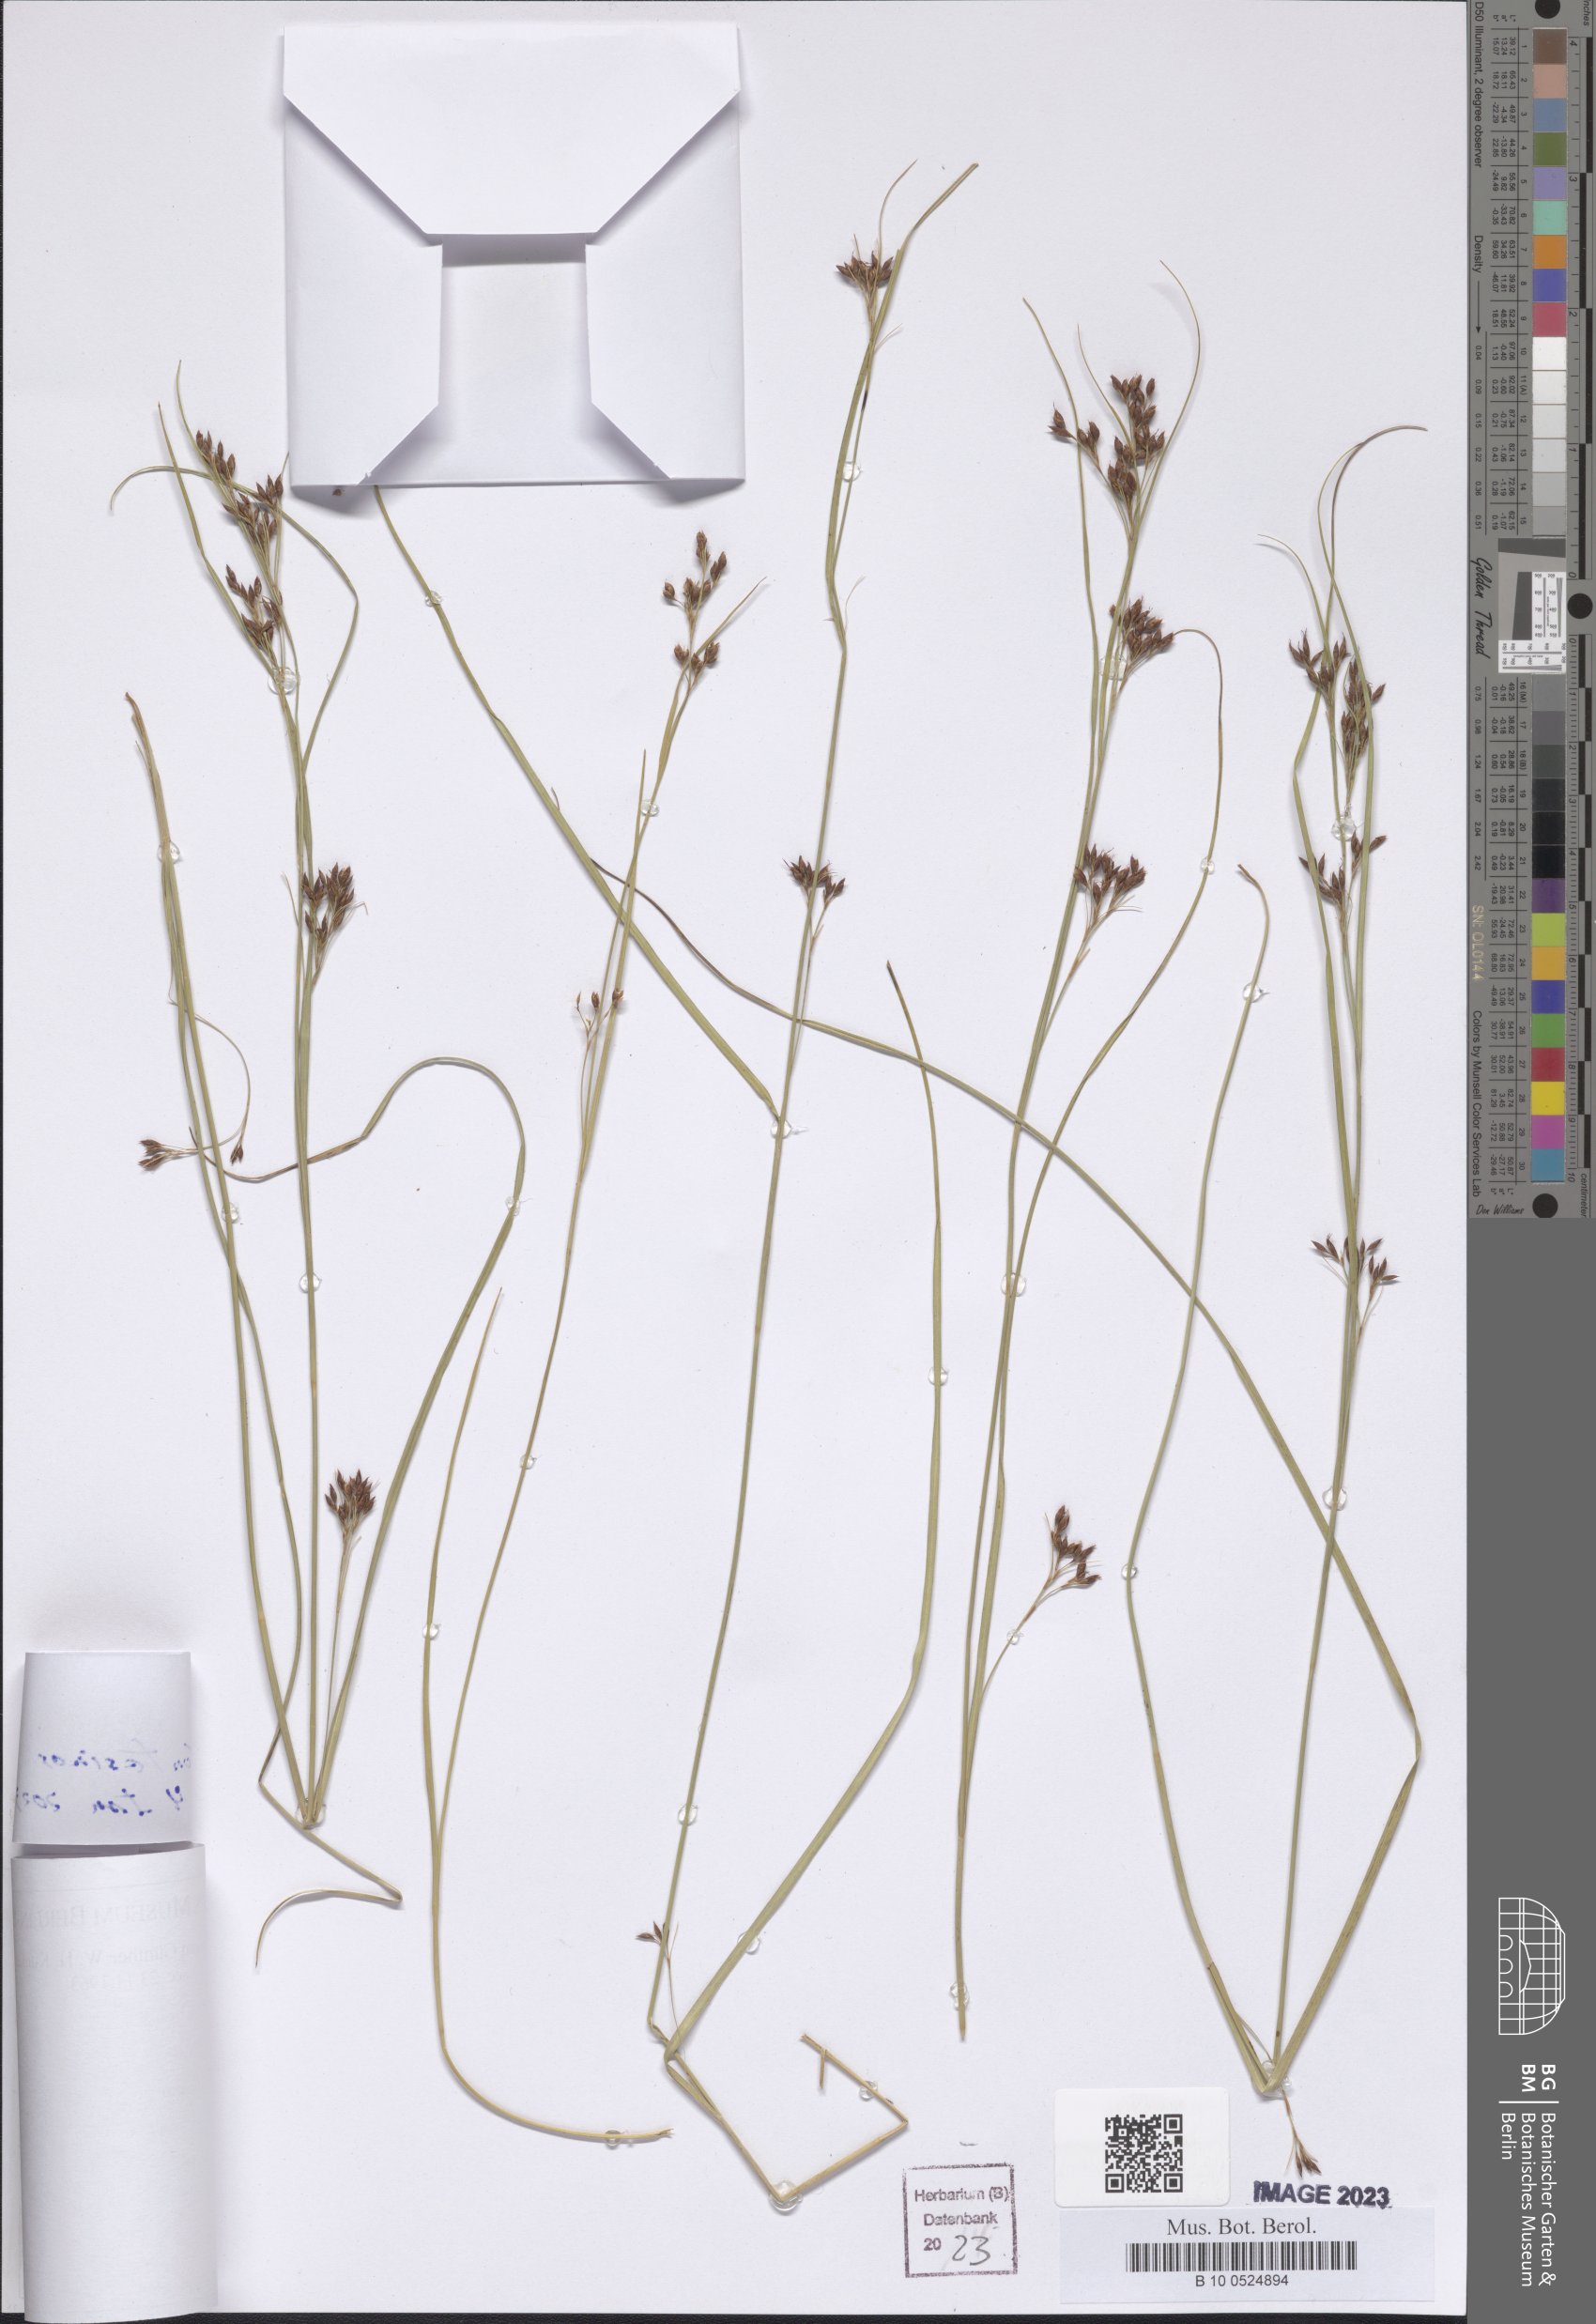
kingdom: Plantae
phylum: Tracheophyta
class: Liliopsida
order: Poales
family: Cyperaceae
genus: Scirpus
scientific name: Scirpus
